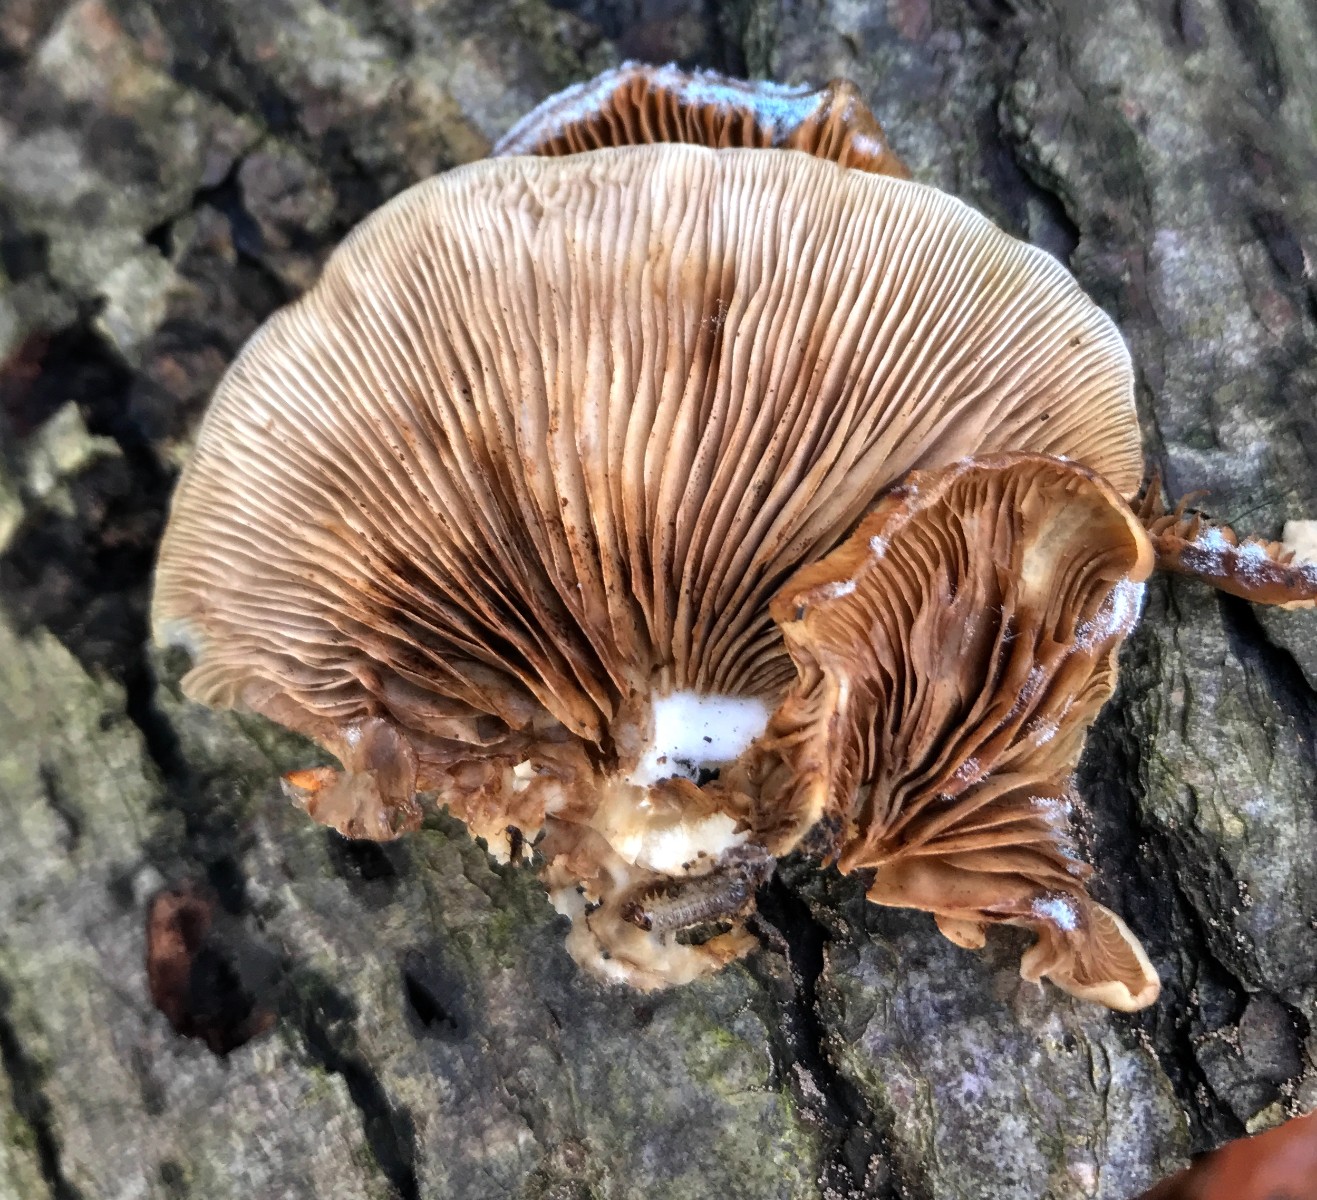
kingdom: Fungi
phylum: Basidiomycota
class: Agaricomycetes
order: Agaricales
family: Crepidotaceae
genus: Crepidotus
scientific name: Crepidotus mollis
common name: blød muslingesvamp
